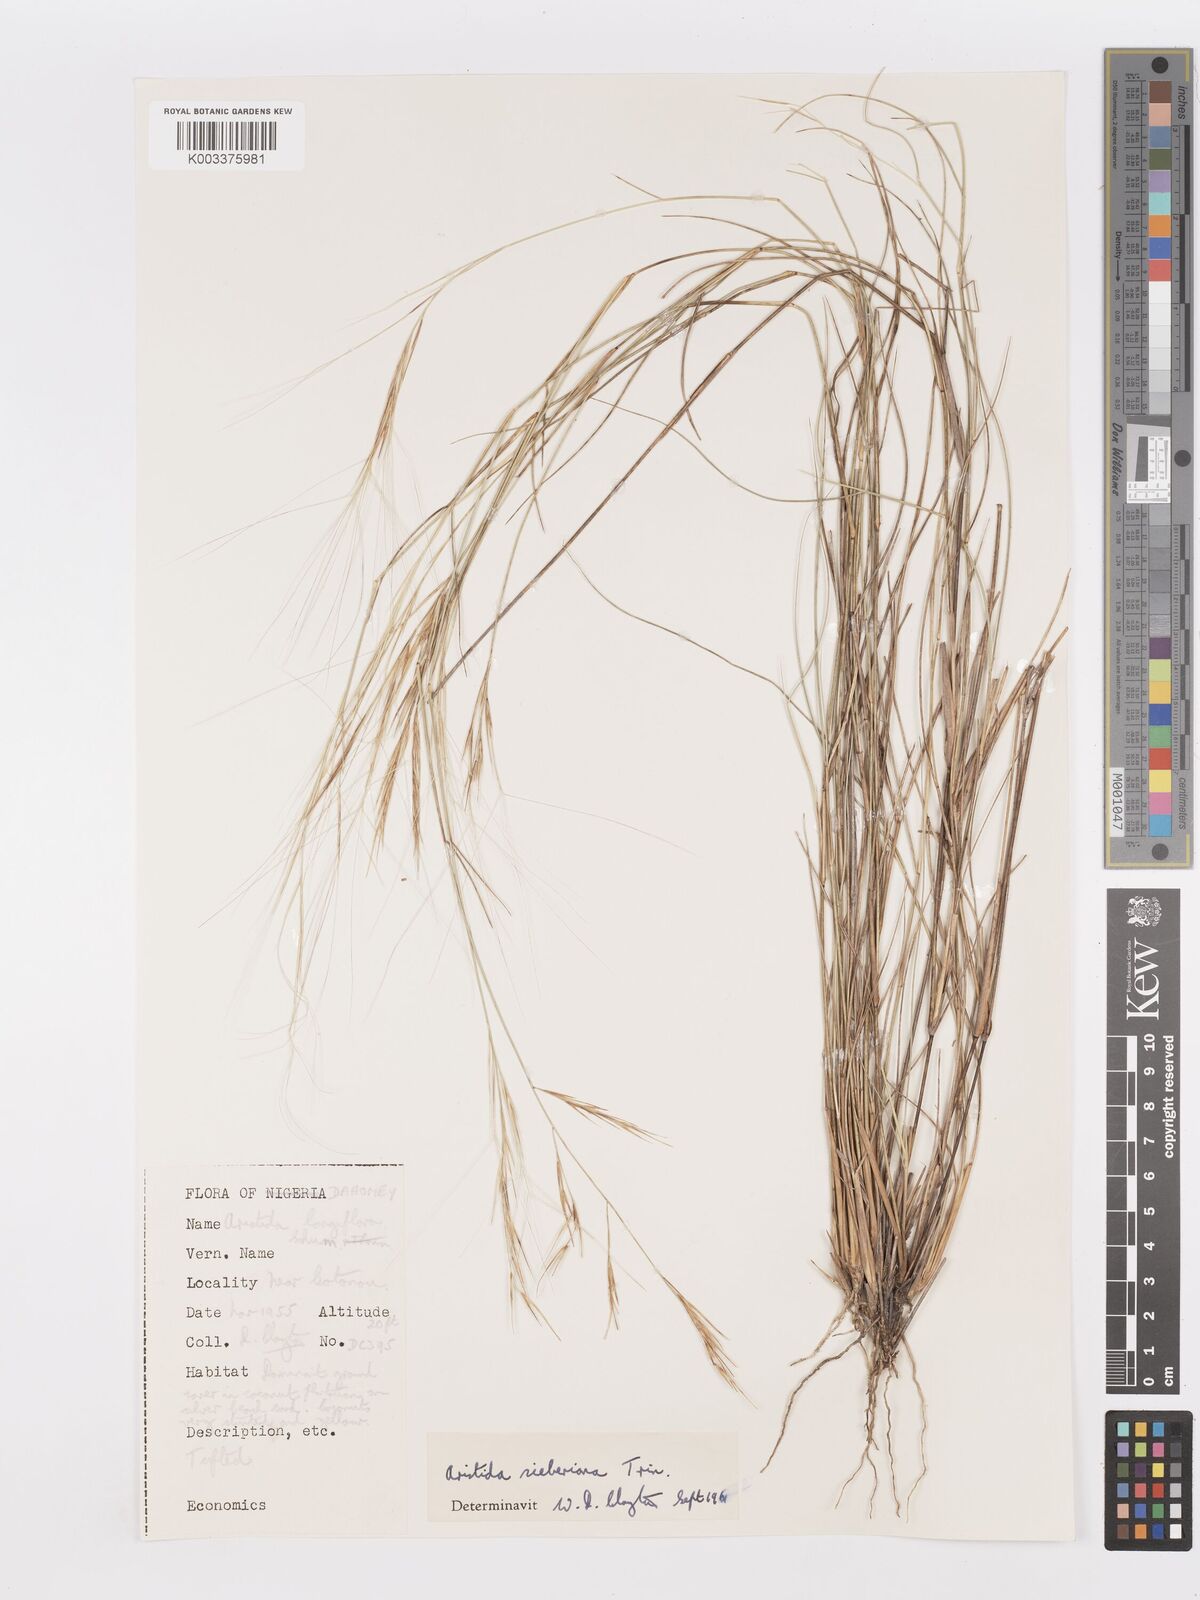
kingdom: Plantae
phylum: Tracheophyta
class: Liliopsida
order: Poales
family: Poaceae
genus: Aristida
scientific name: Aristida sieberiana
